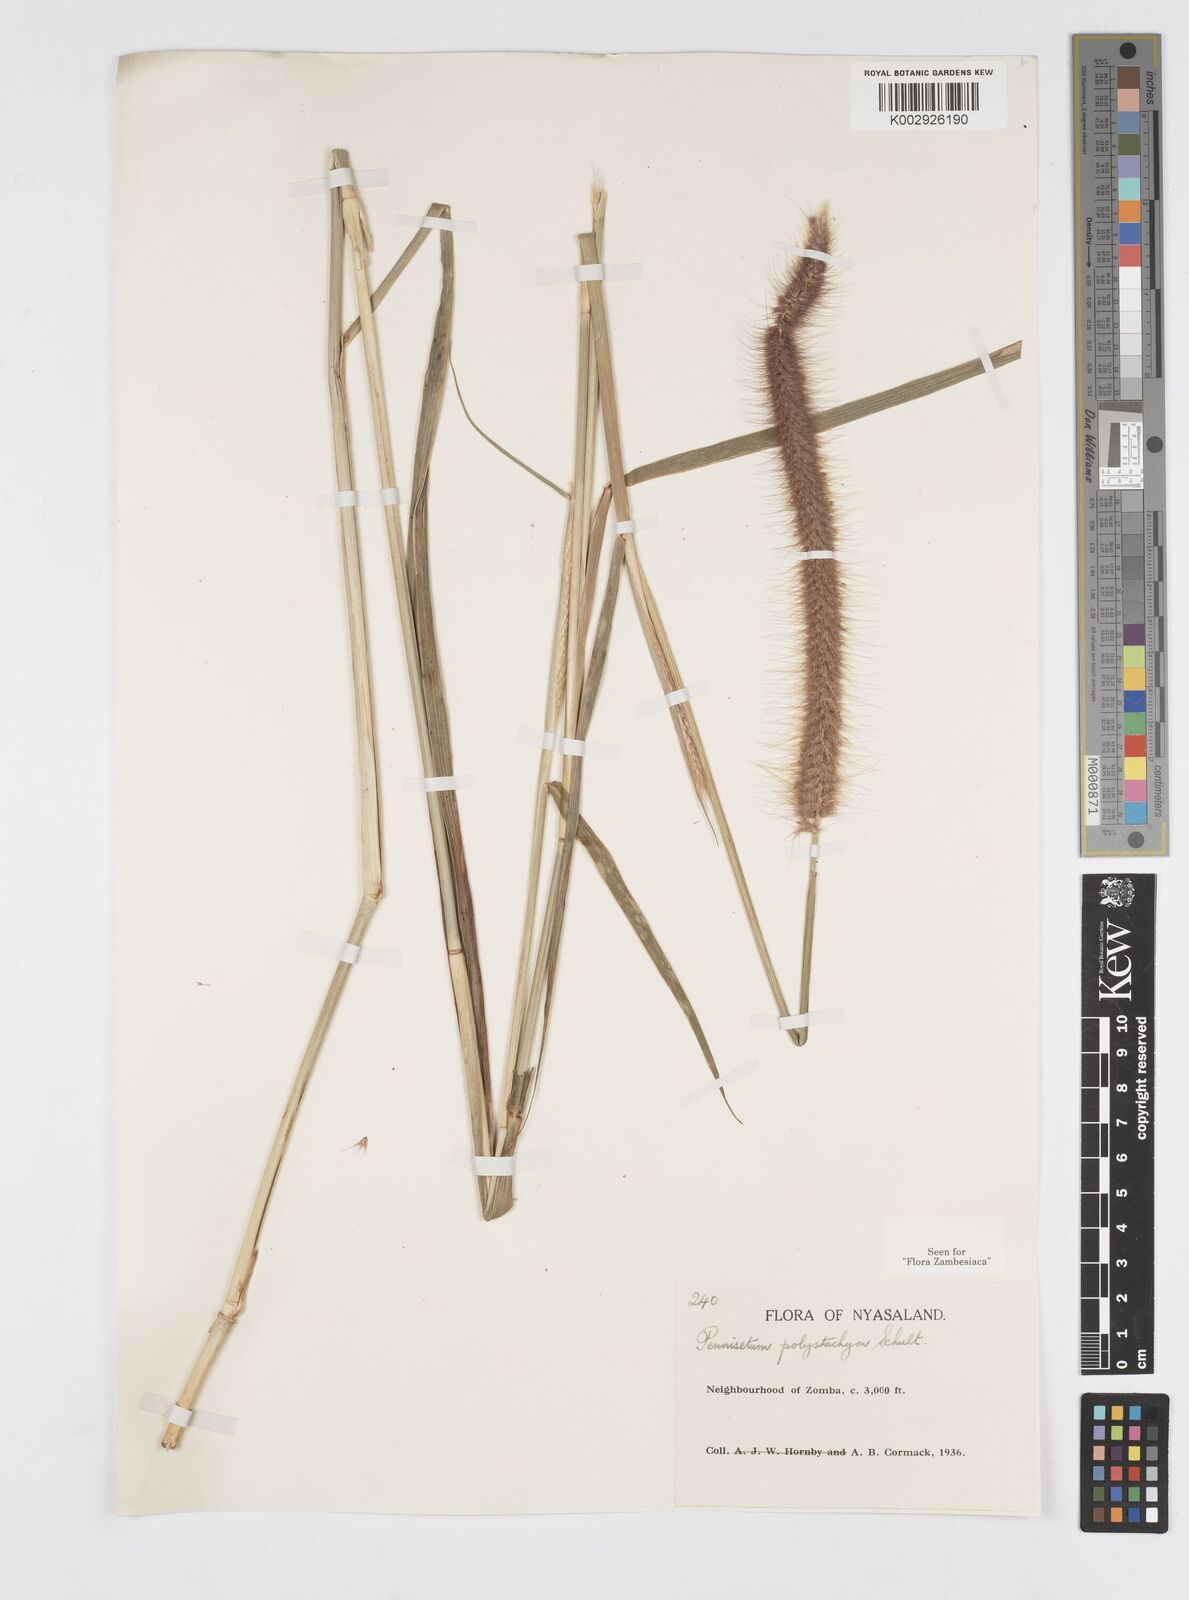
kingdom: Plantae
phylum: Tracheophyta
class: Liliopsida
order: Poales
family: Poaceae
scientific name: Poaceae
